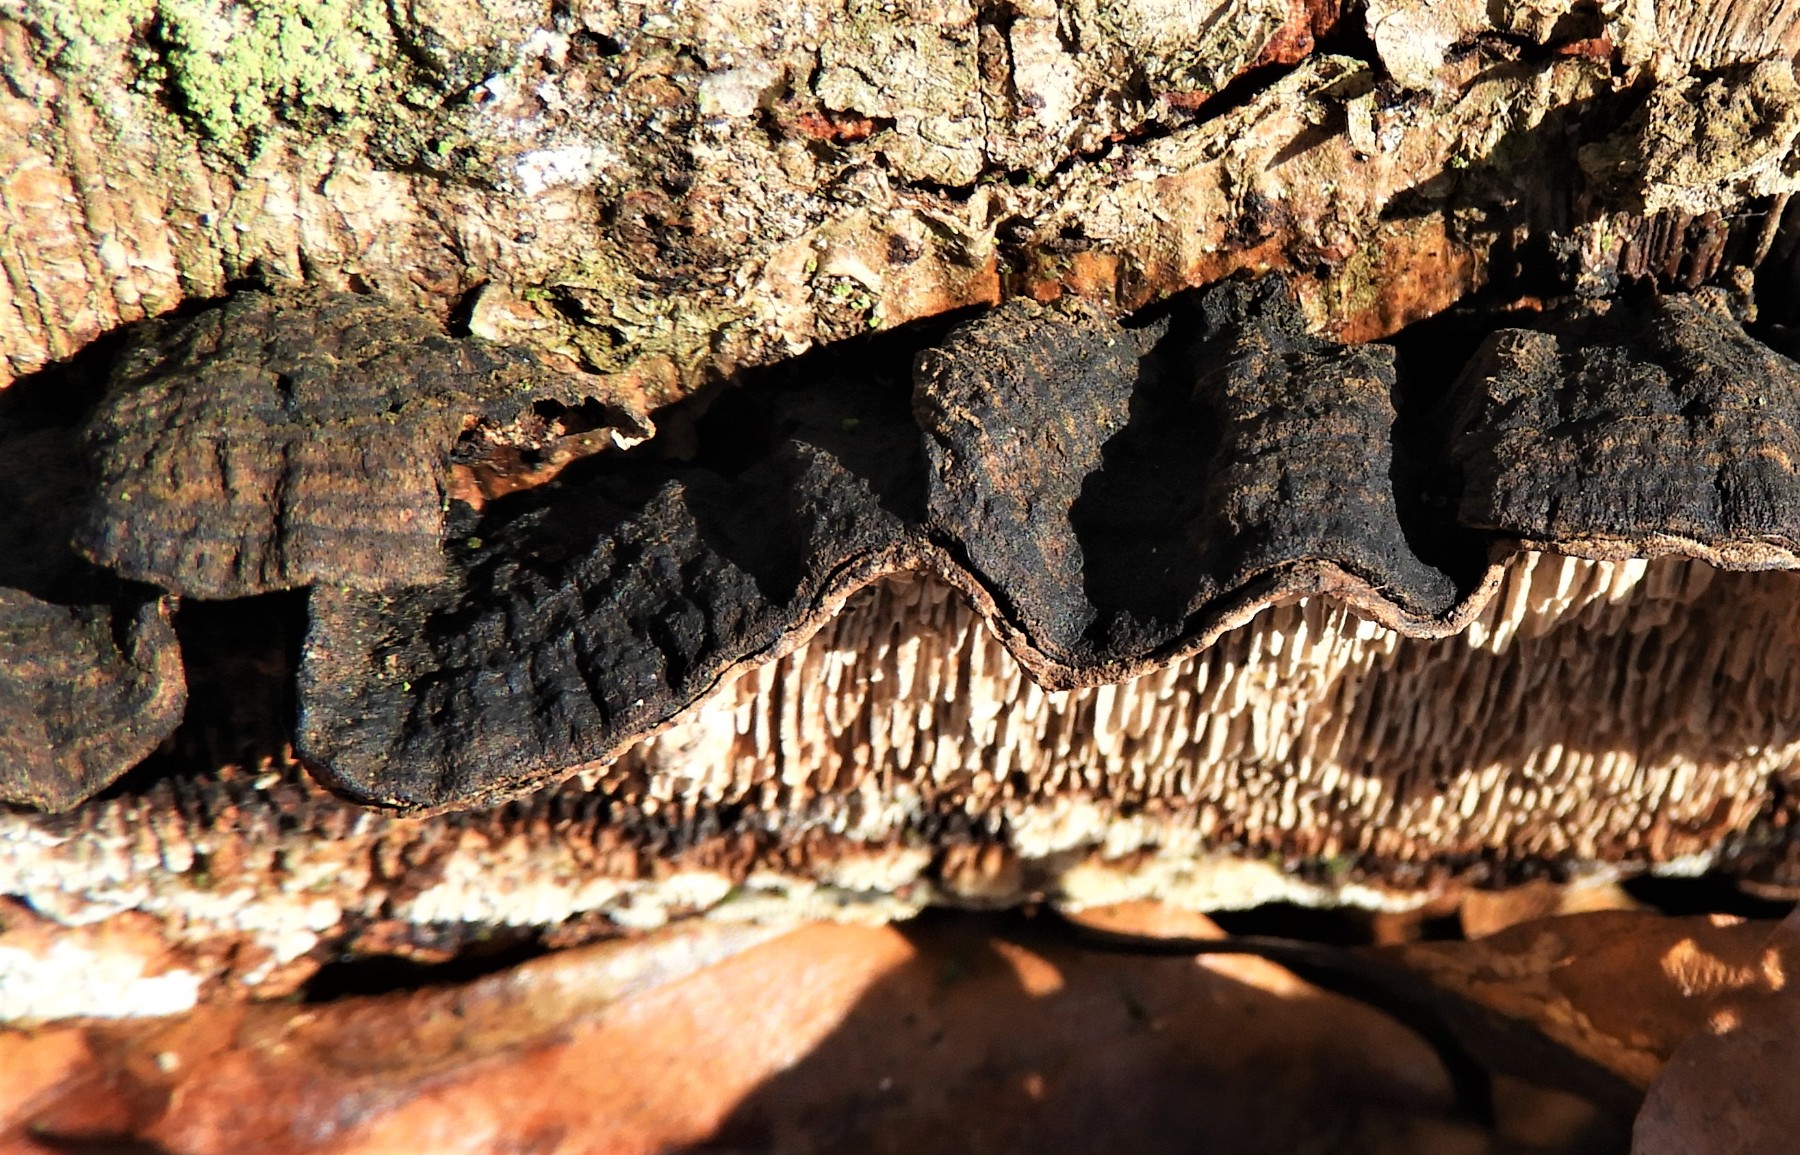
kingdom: Fungi
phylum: Basidiomycota
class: Agaricomycetes
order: Polyporales
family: Polyporaceae
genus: Podofomes
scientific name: Podofomes mollis
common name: blød begporesvamp
